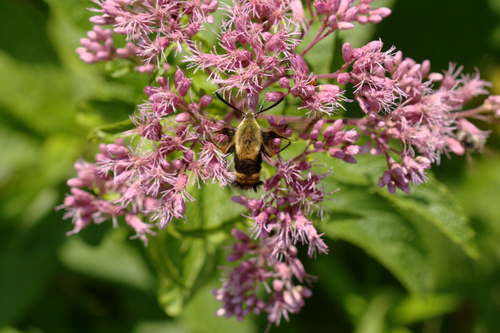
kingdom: Animalia
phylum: Arthropoda
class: Insecta
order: Lepidoptera
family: Sphingidae
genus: Hemaris
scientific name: Hemaris thysbe
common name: Common clear-wing
